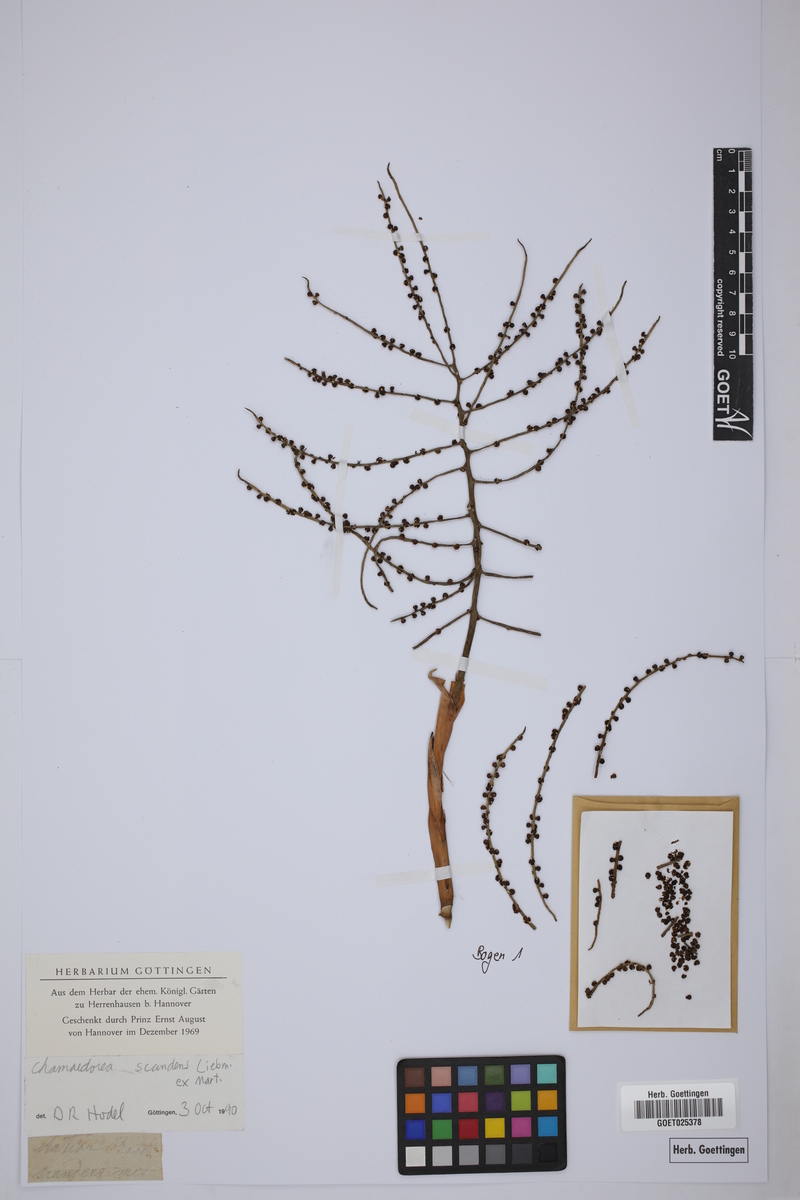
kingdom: Plantae
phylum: Tracheophyta
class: Liliopsida
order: Arecales
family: Arecaceae
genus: Chamaedorea
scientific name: Chamaedorea elatior
